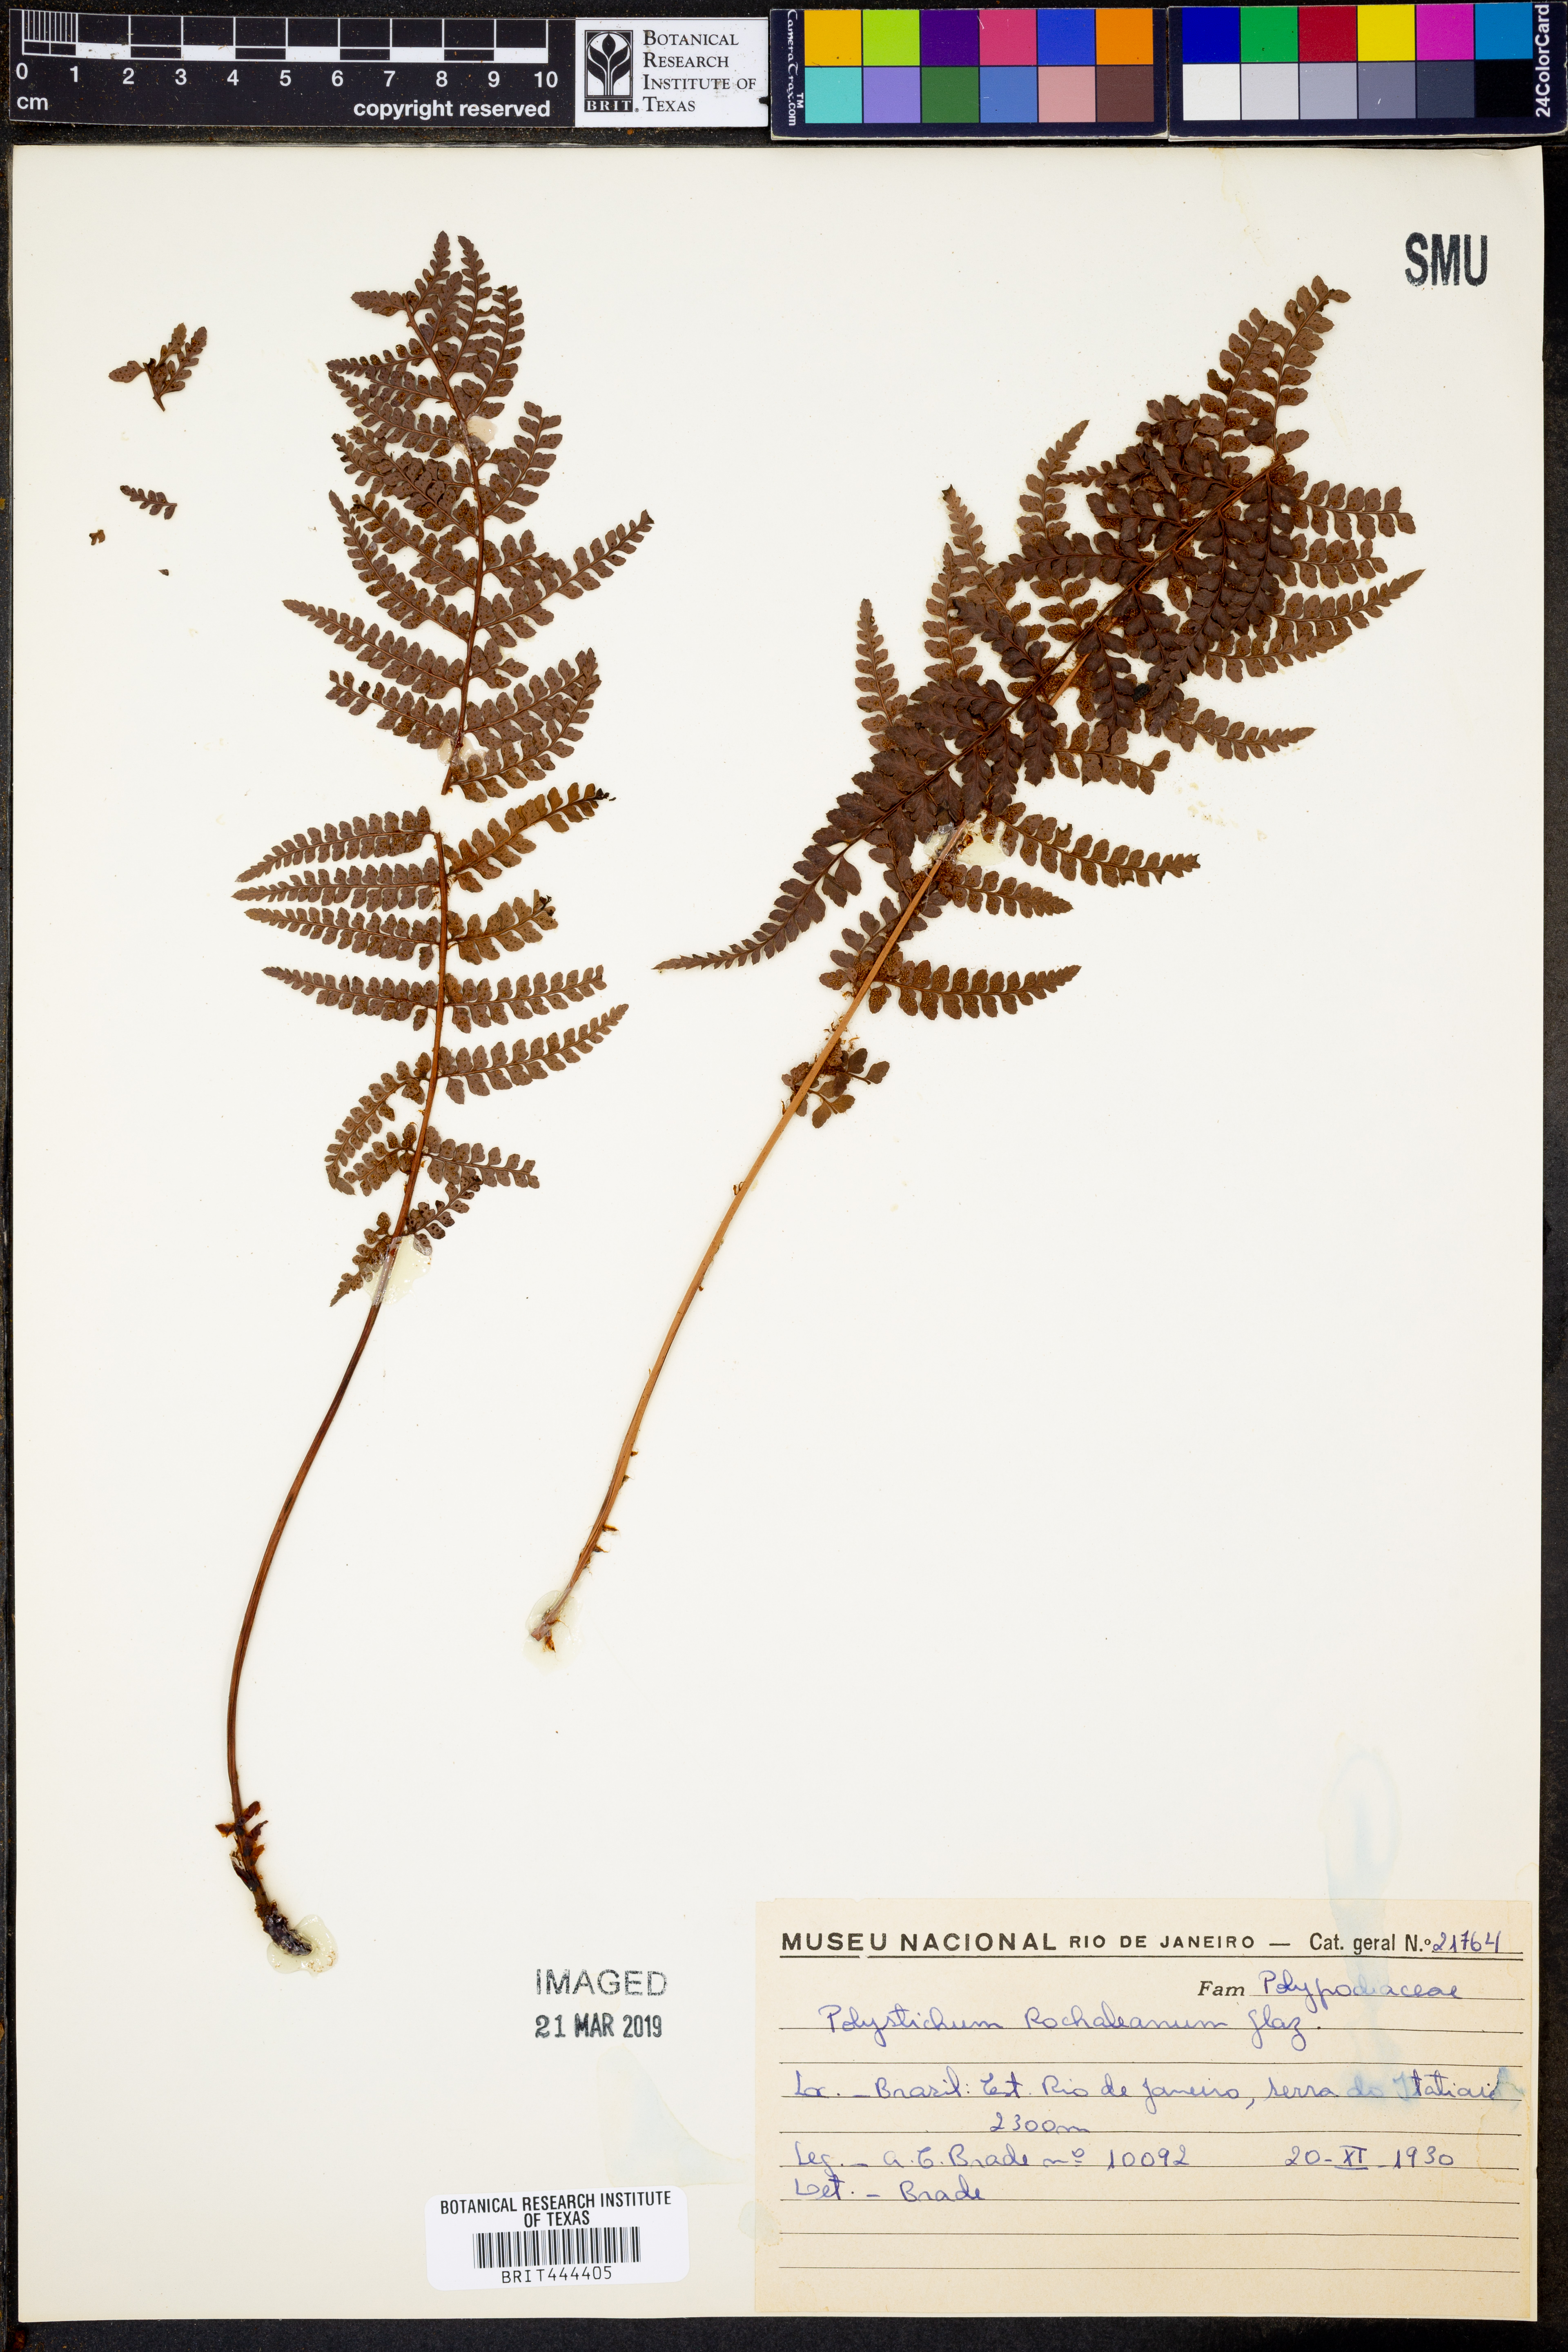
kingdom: Plantae
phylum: Tracheophyta
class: Polypodiopsida
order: Polypodiales
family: Dryopteridaceae
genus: Polystichum
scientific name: Polystichum rachichlaena
